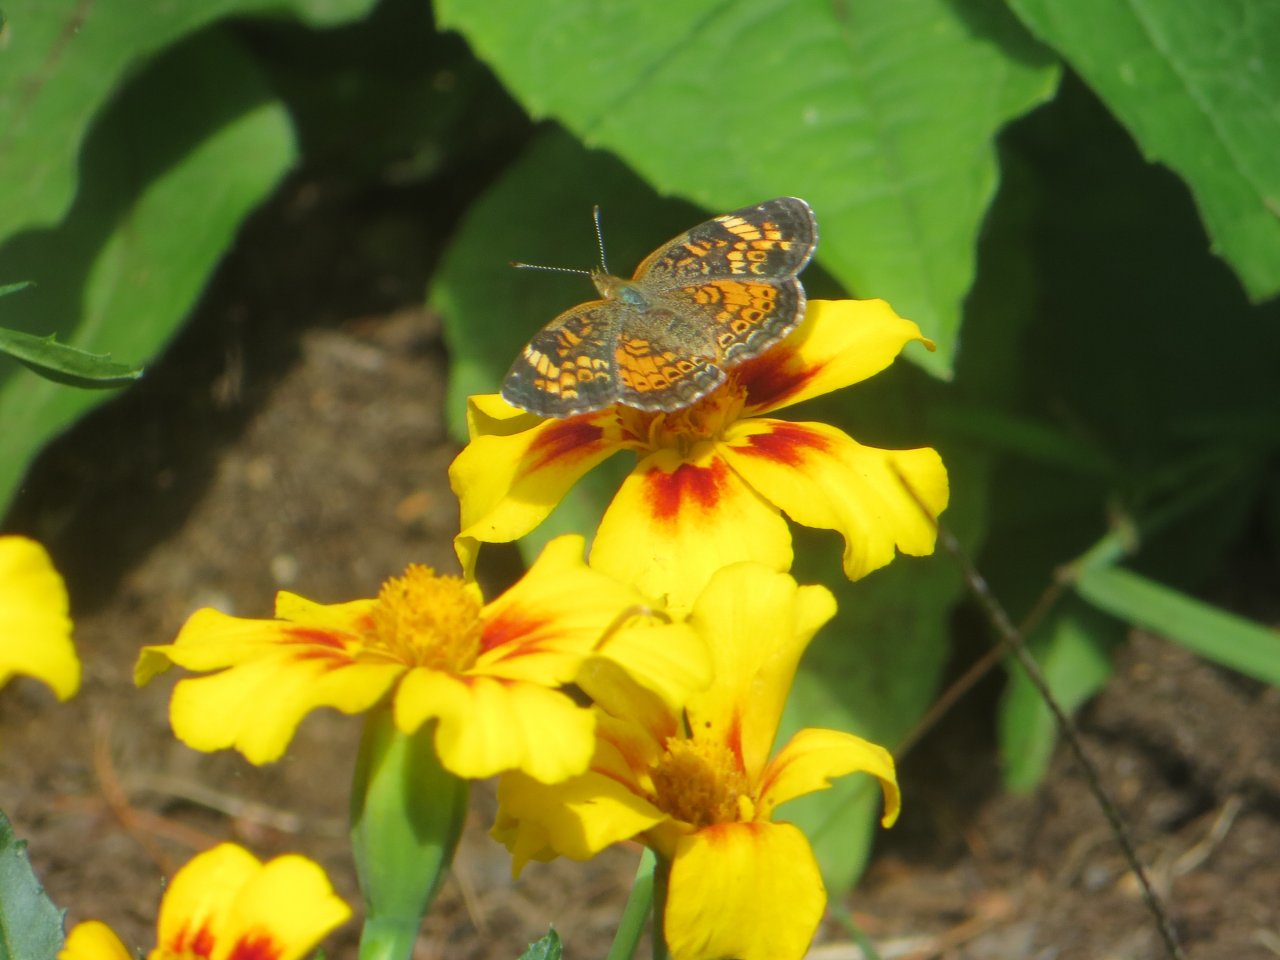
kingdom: Animalia
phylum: Arthropoda
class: Insecta
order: Lepidoptera
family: Nymphalidae
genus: Phyciodes
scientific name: Phyciodes tharos
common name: Northern Crescent
